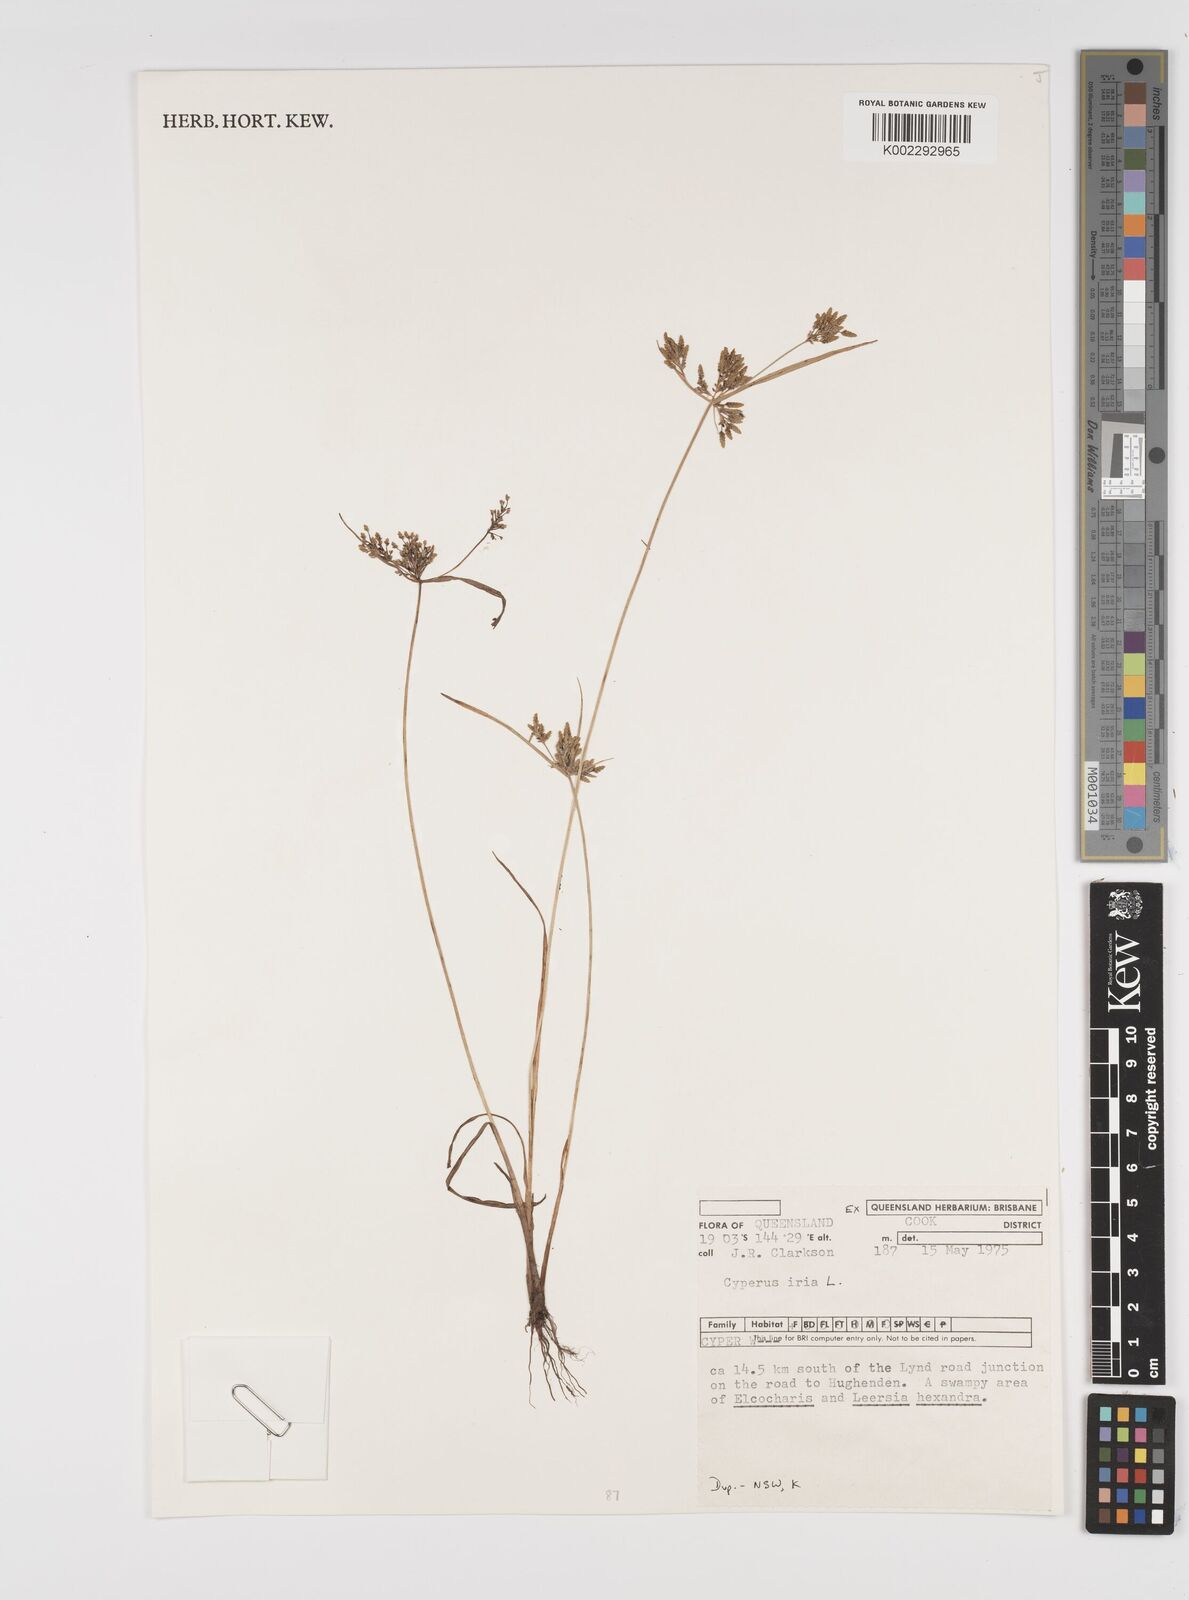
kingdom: Plantae
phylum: Tracheophyta
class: Liliopsida
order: Poales
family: Cyperaceae
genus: Cyperus
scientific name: Cyperus iria
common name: Ricefield flatsedge
